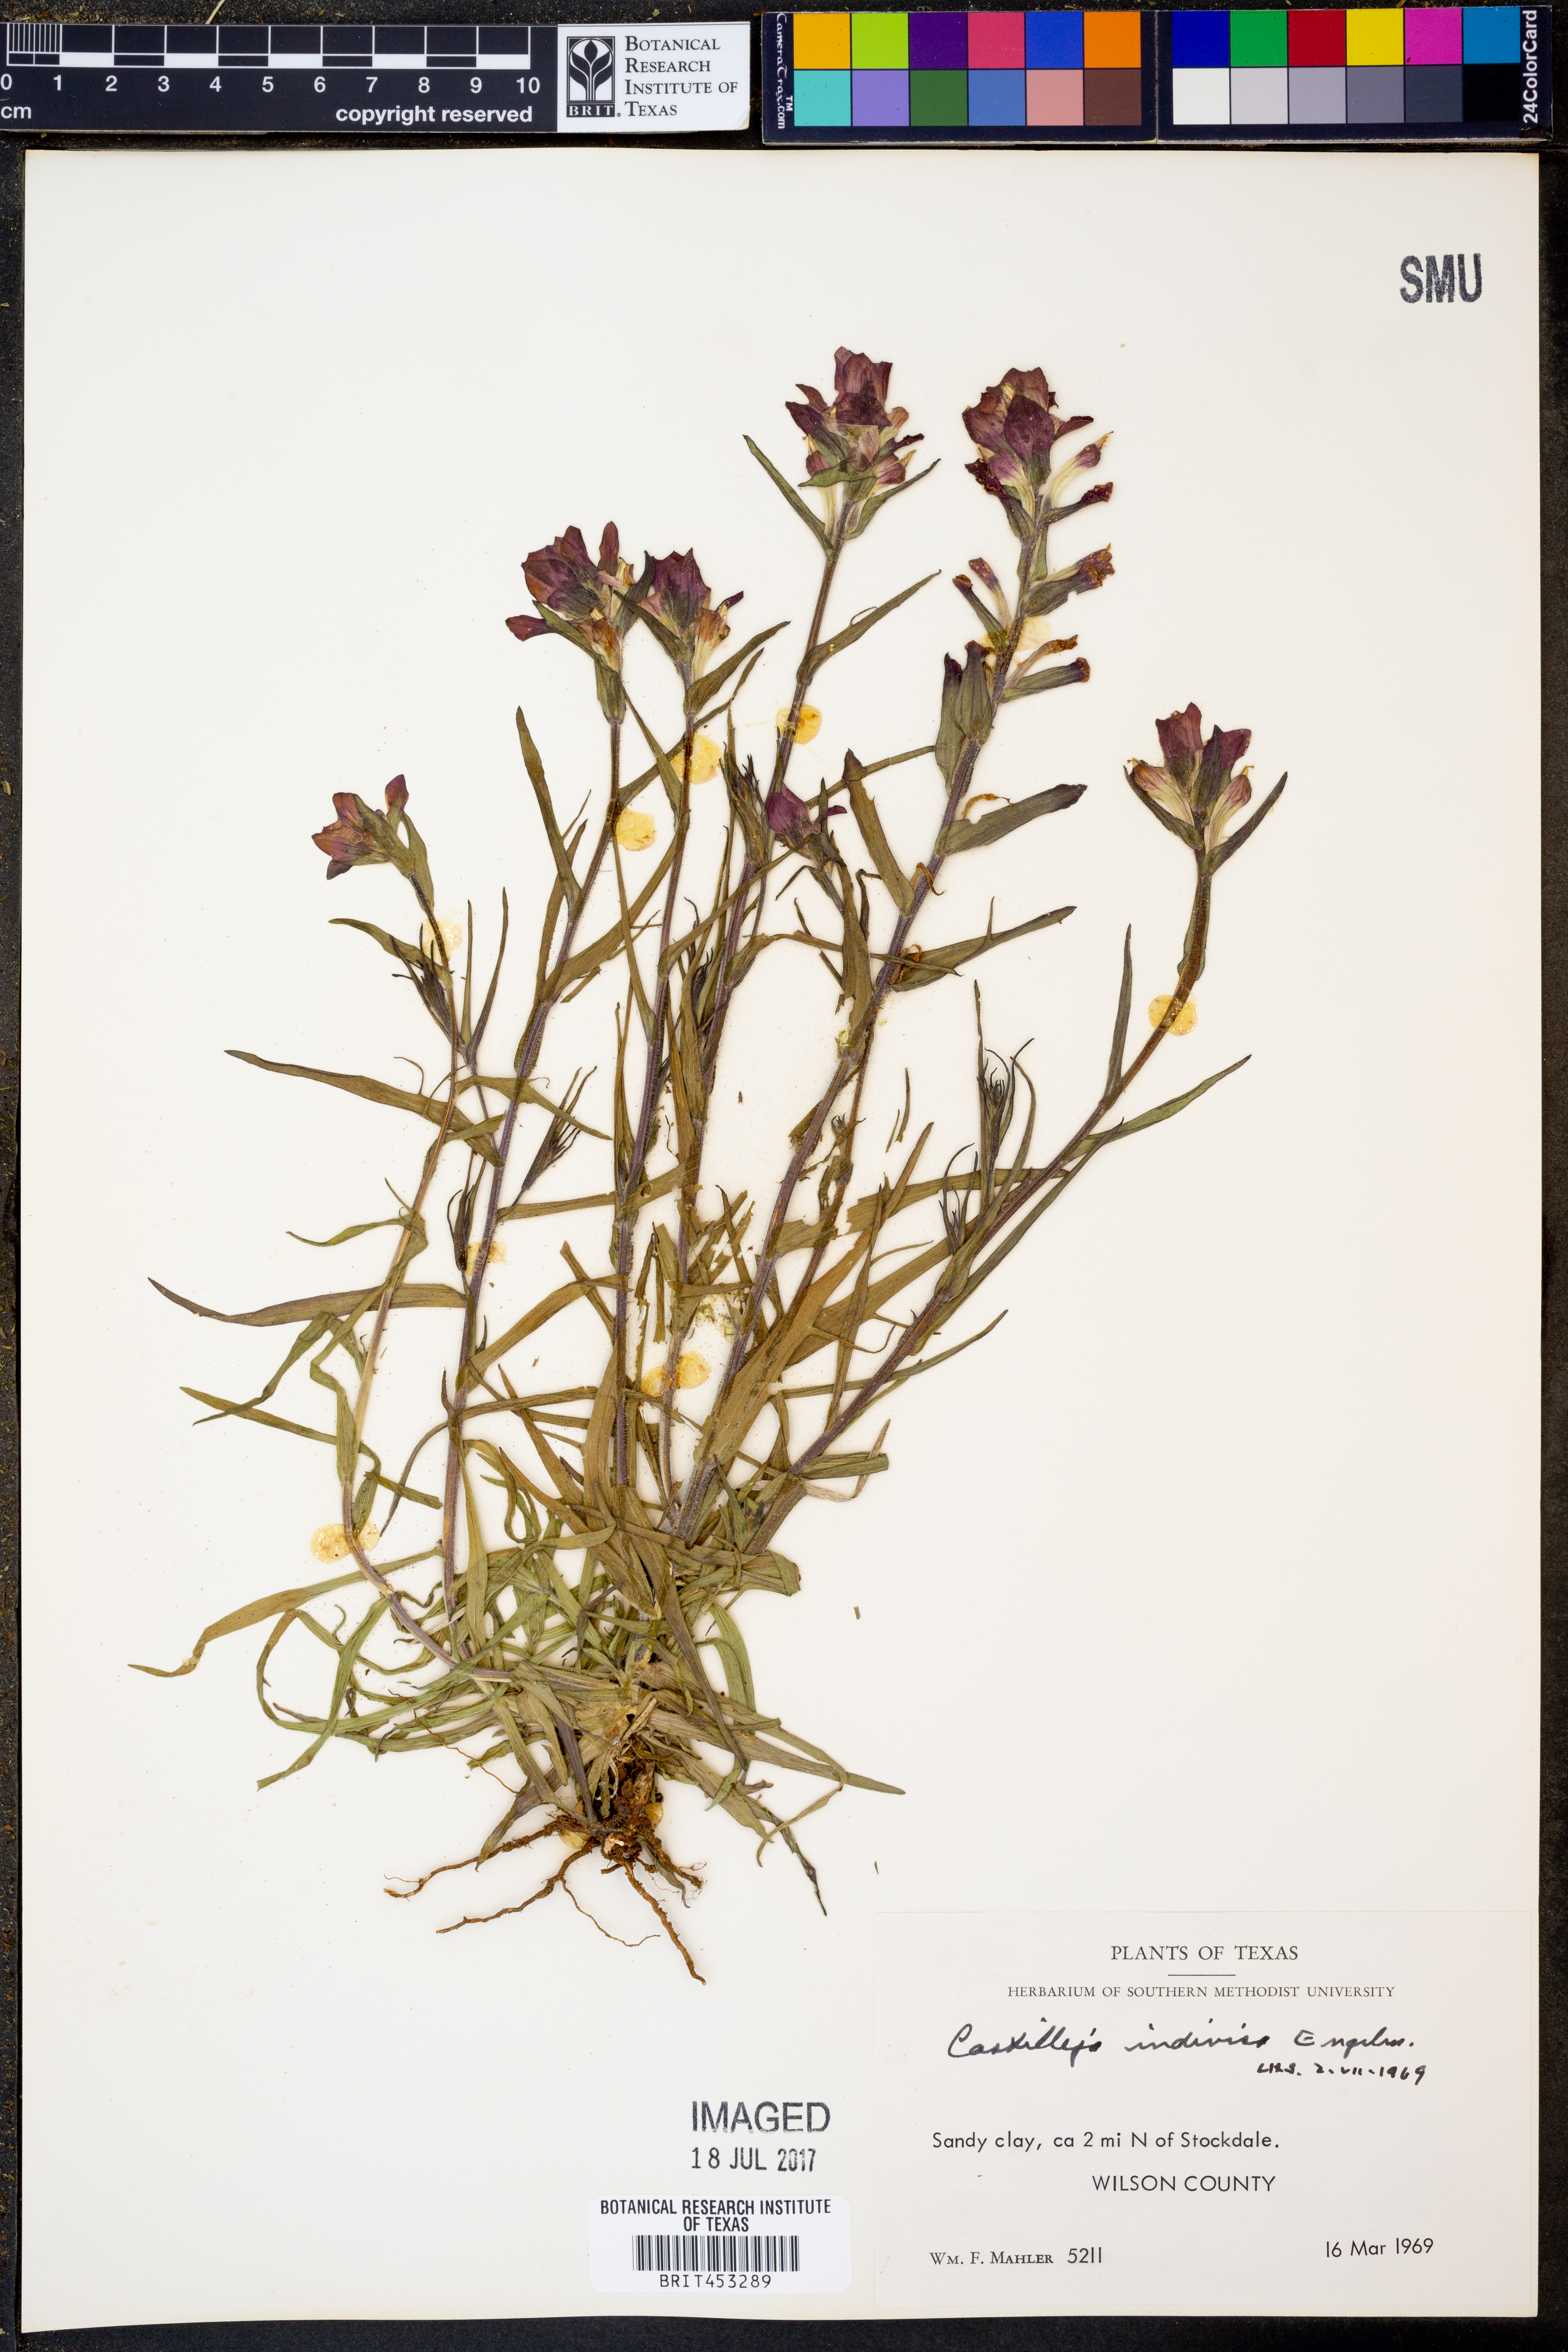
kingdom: Plantae
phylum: Tracheophyta
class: Magnoliopsida
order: Lamiales
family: Orobanchaceae
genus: Castilleja
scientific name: Castilleja indivisa
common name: Texas paintbrush
